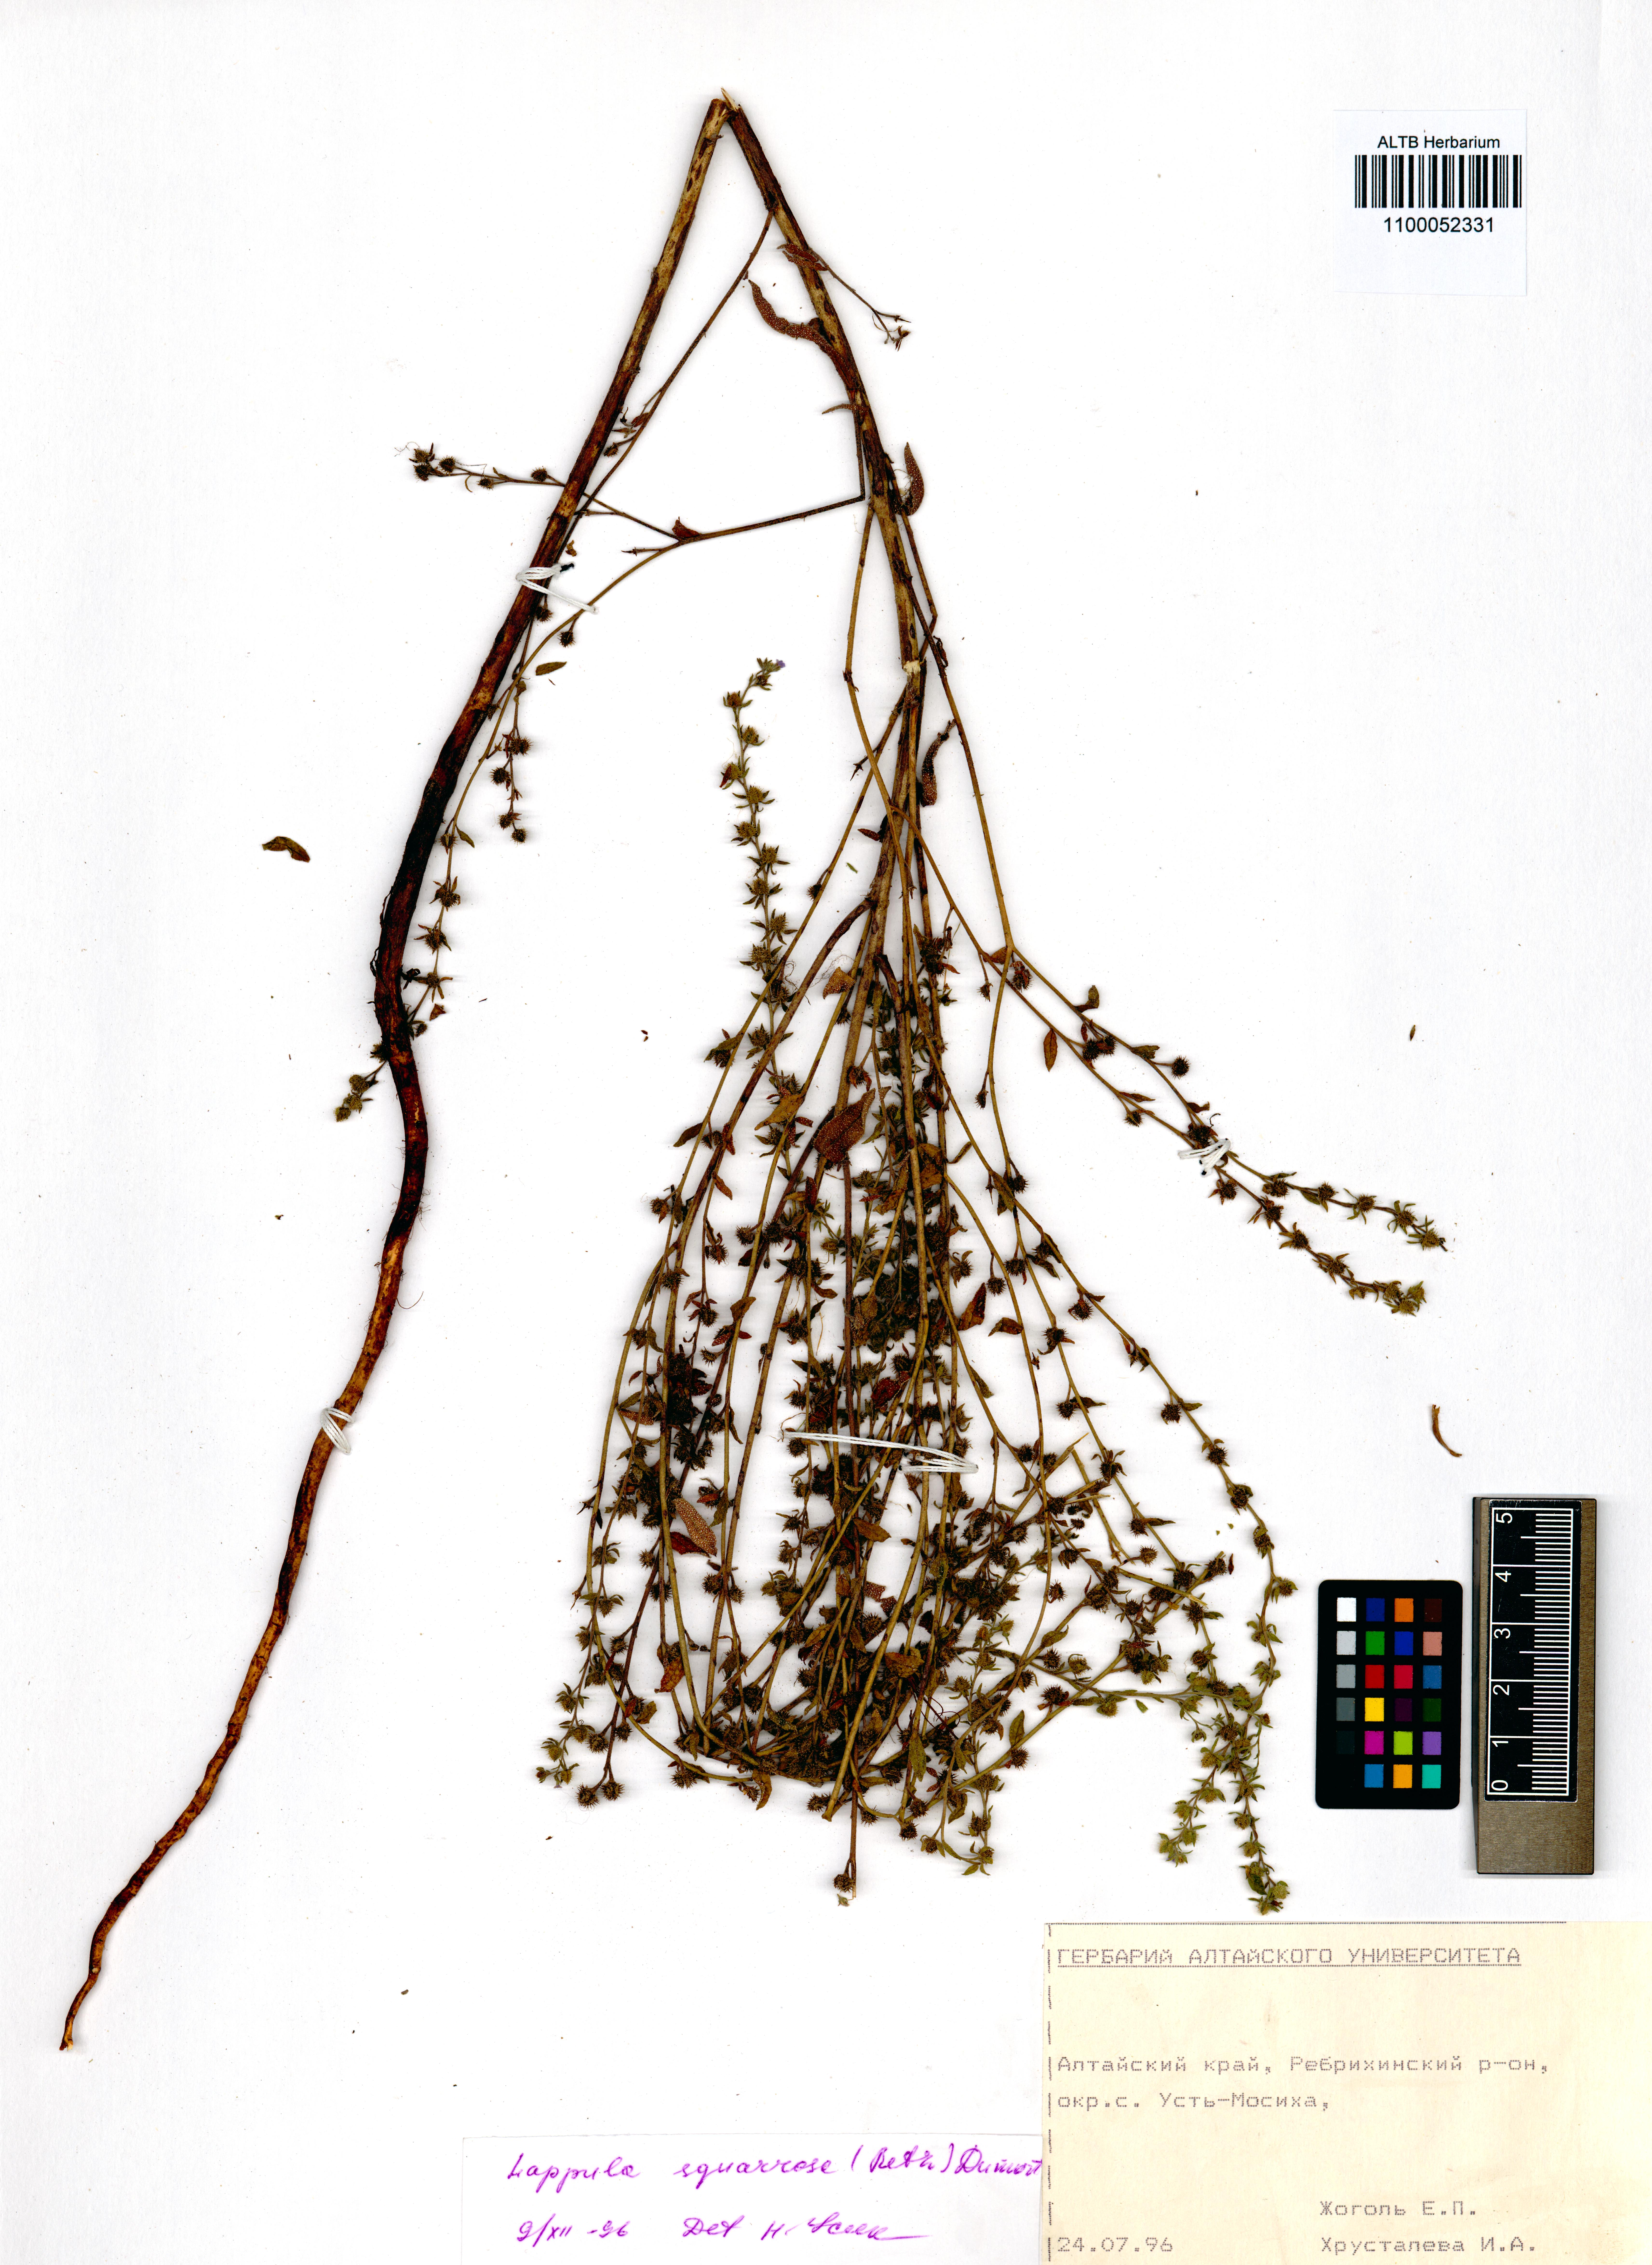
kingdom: Plantae
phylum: Tracheophyta
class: Magnoliopsida
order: Boraginales
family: Boraginaceae
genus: Lappula
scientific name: Lappula squarrosa
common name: European stickseed
